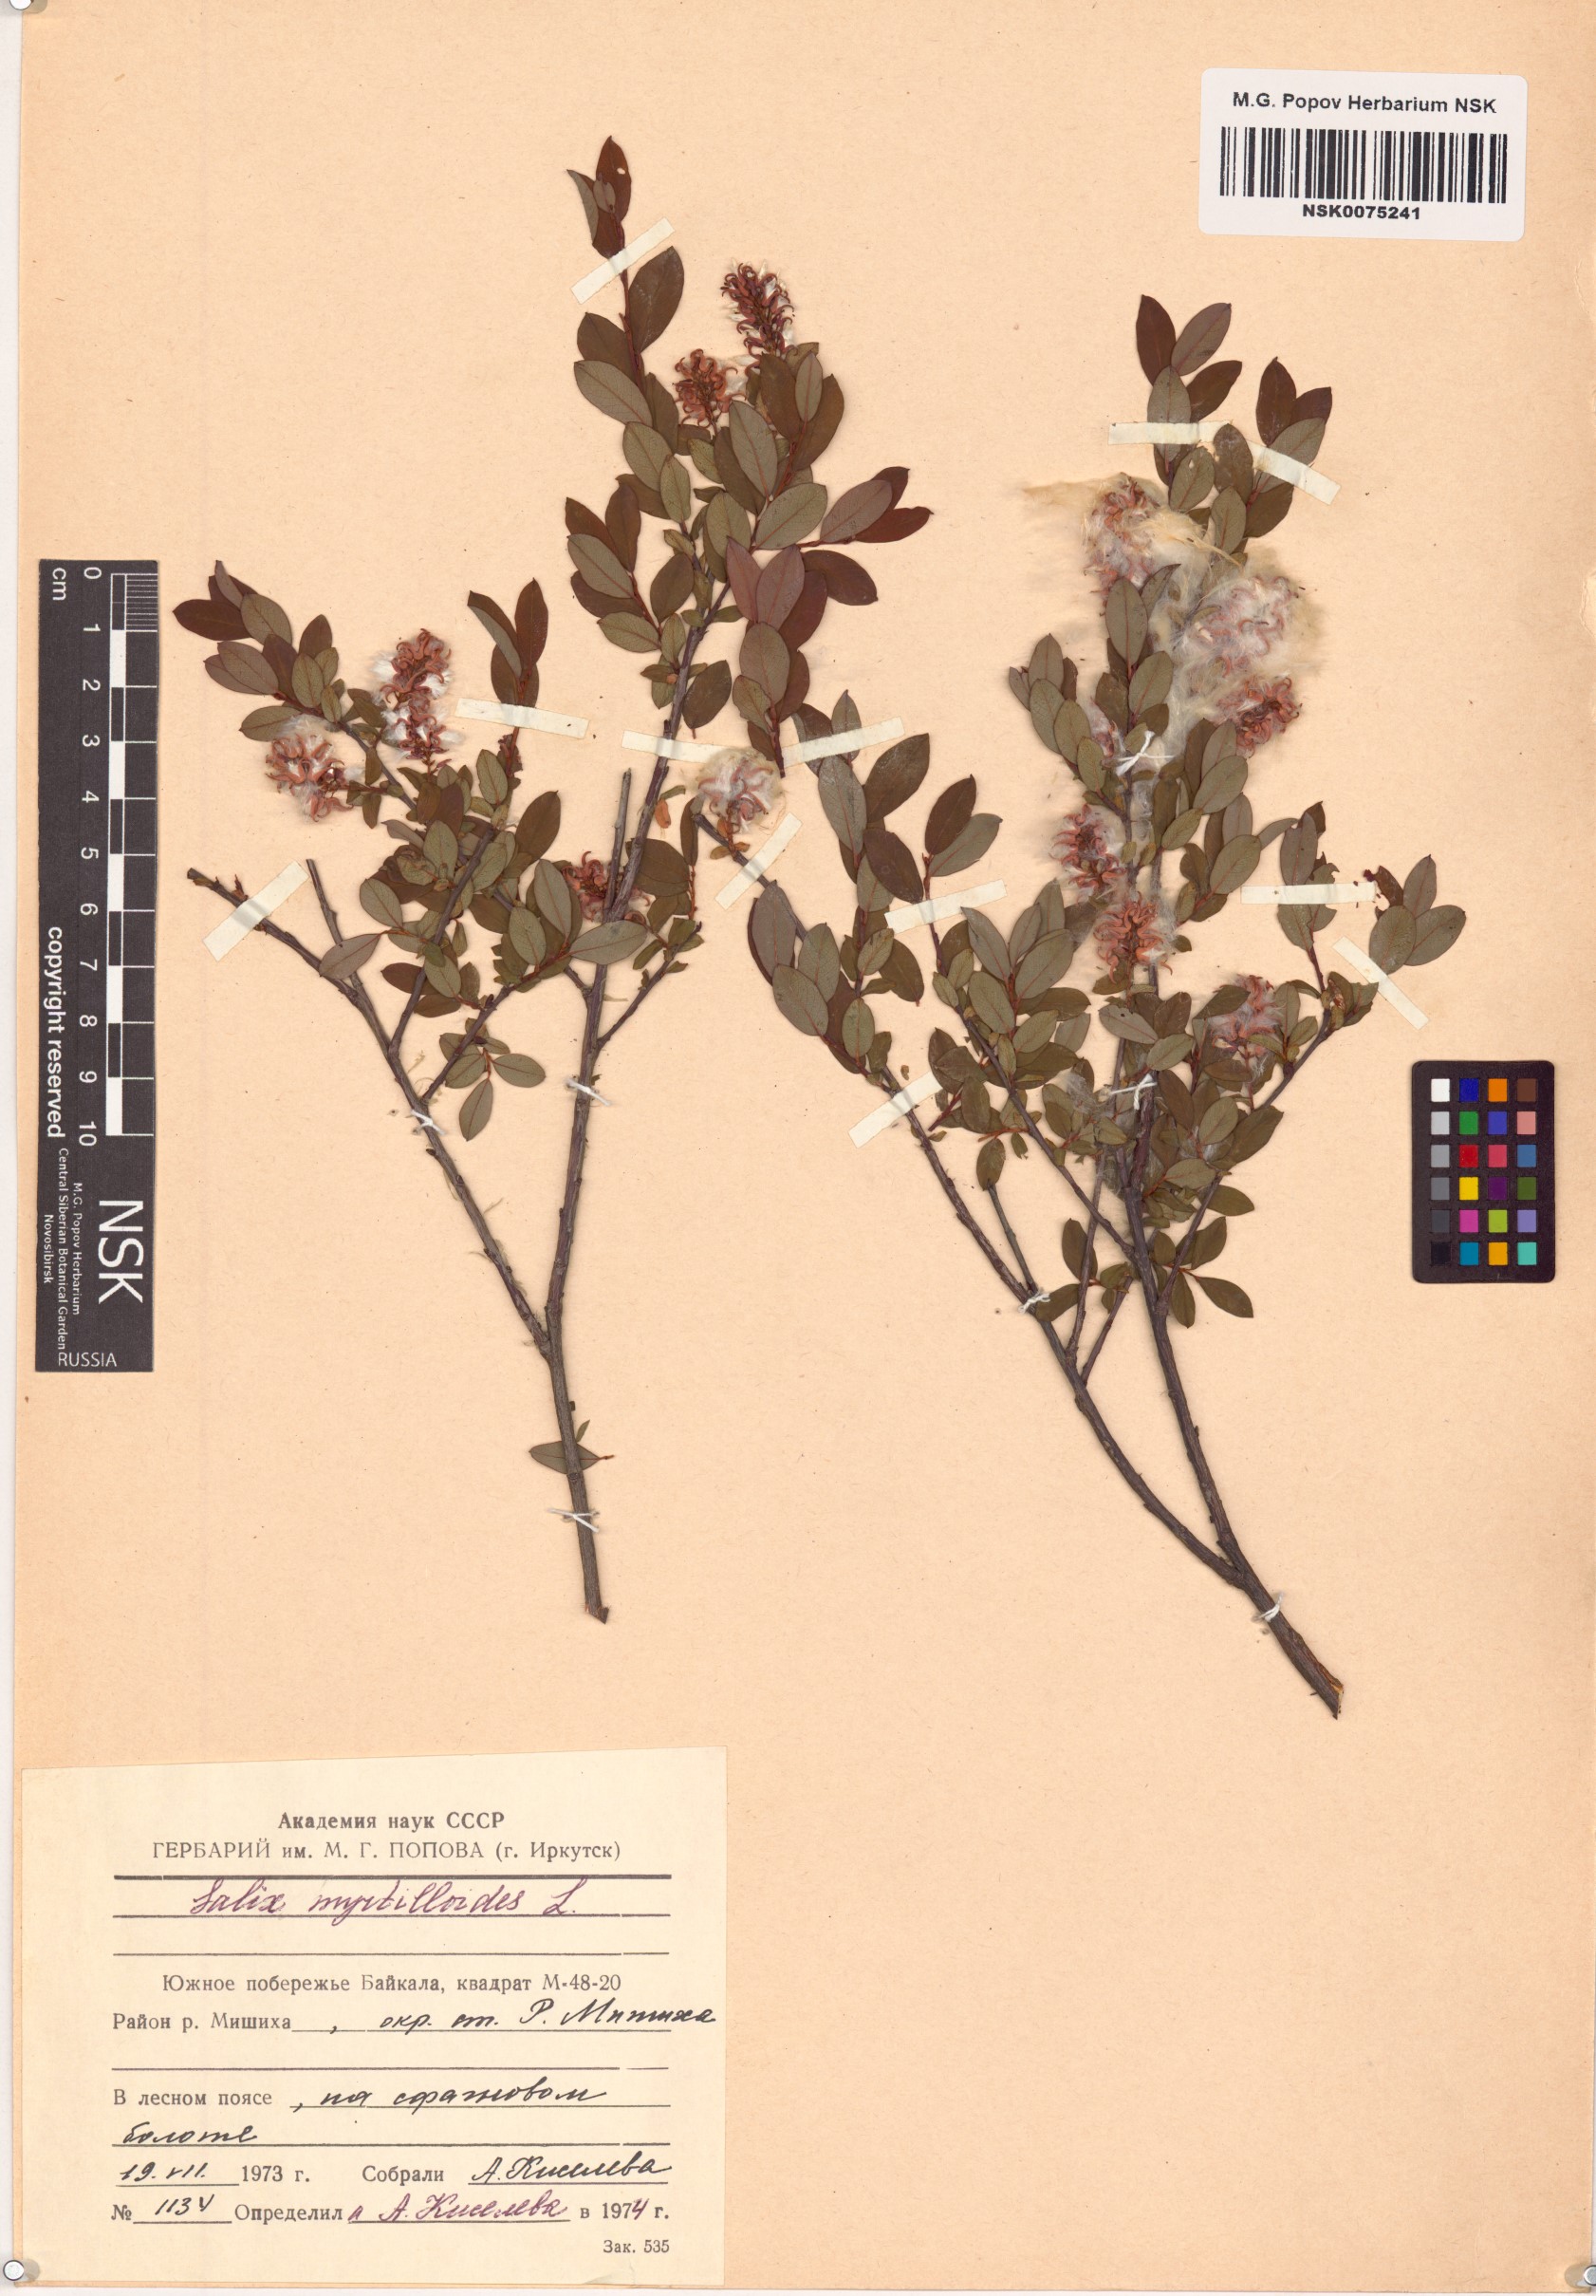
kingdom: Plantae
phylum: Tracheophyta
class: Magnoliopsida
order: Malpighiales
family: Salicaceae
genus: Salix
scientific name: Salix myrtilloides
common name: Myrtle-leaved willow
